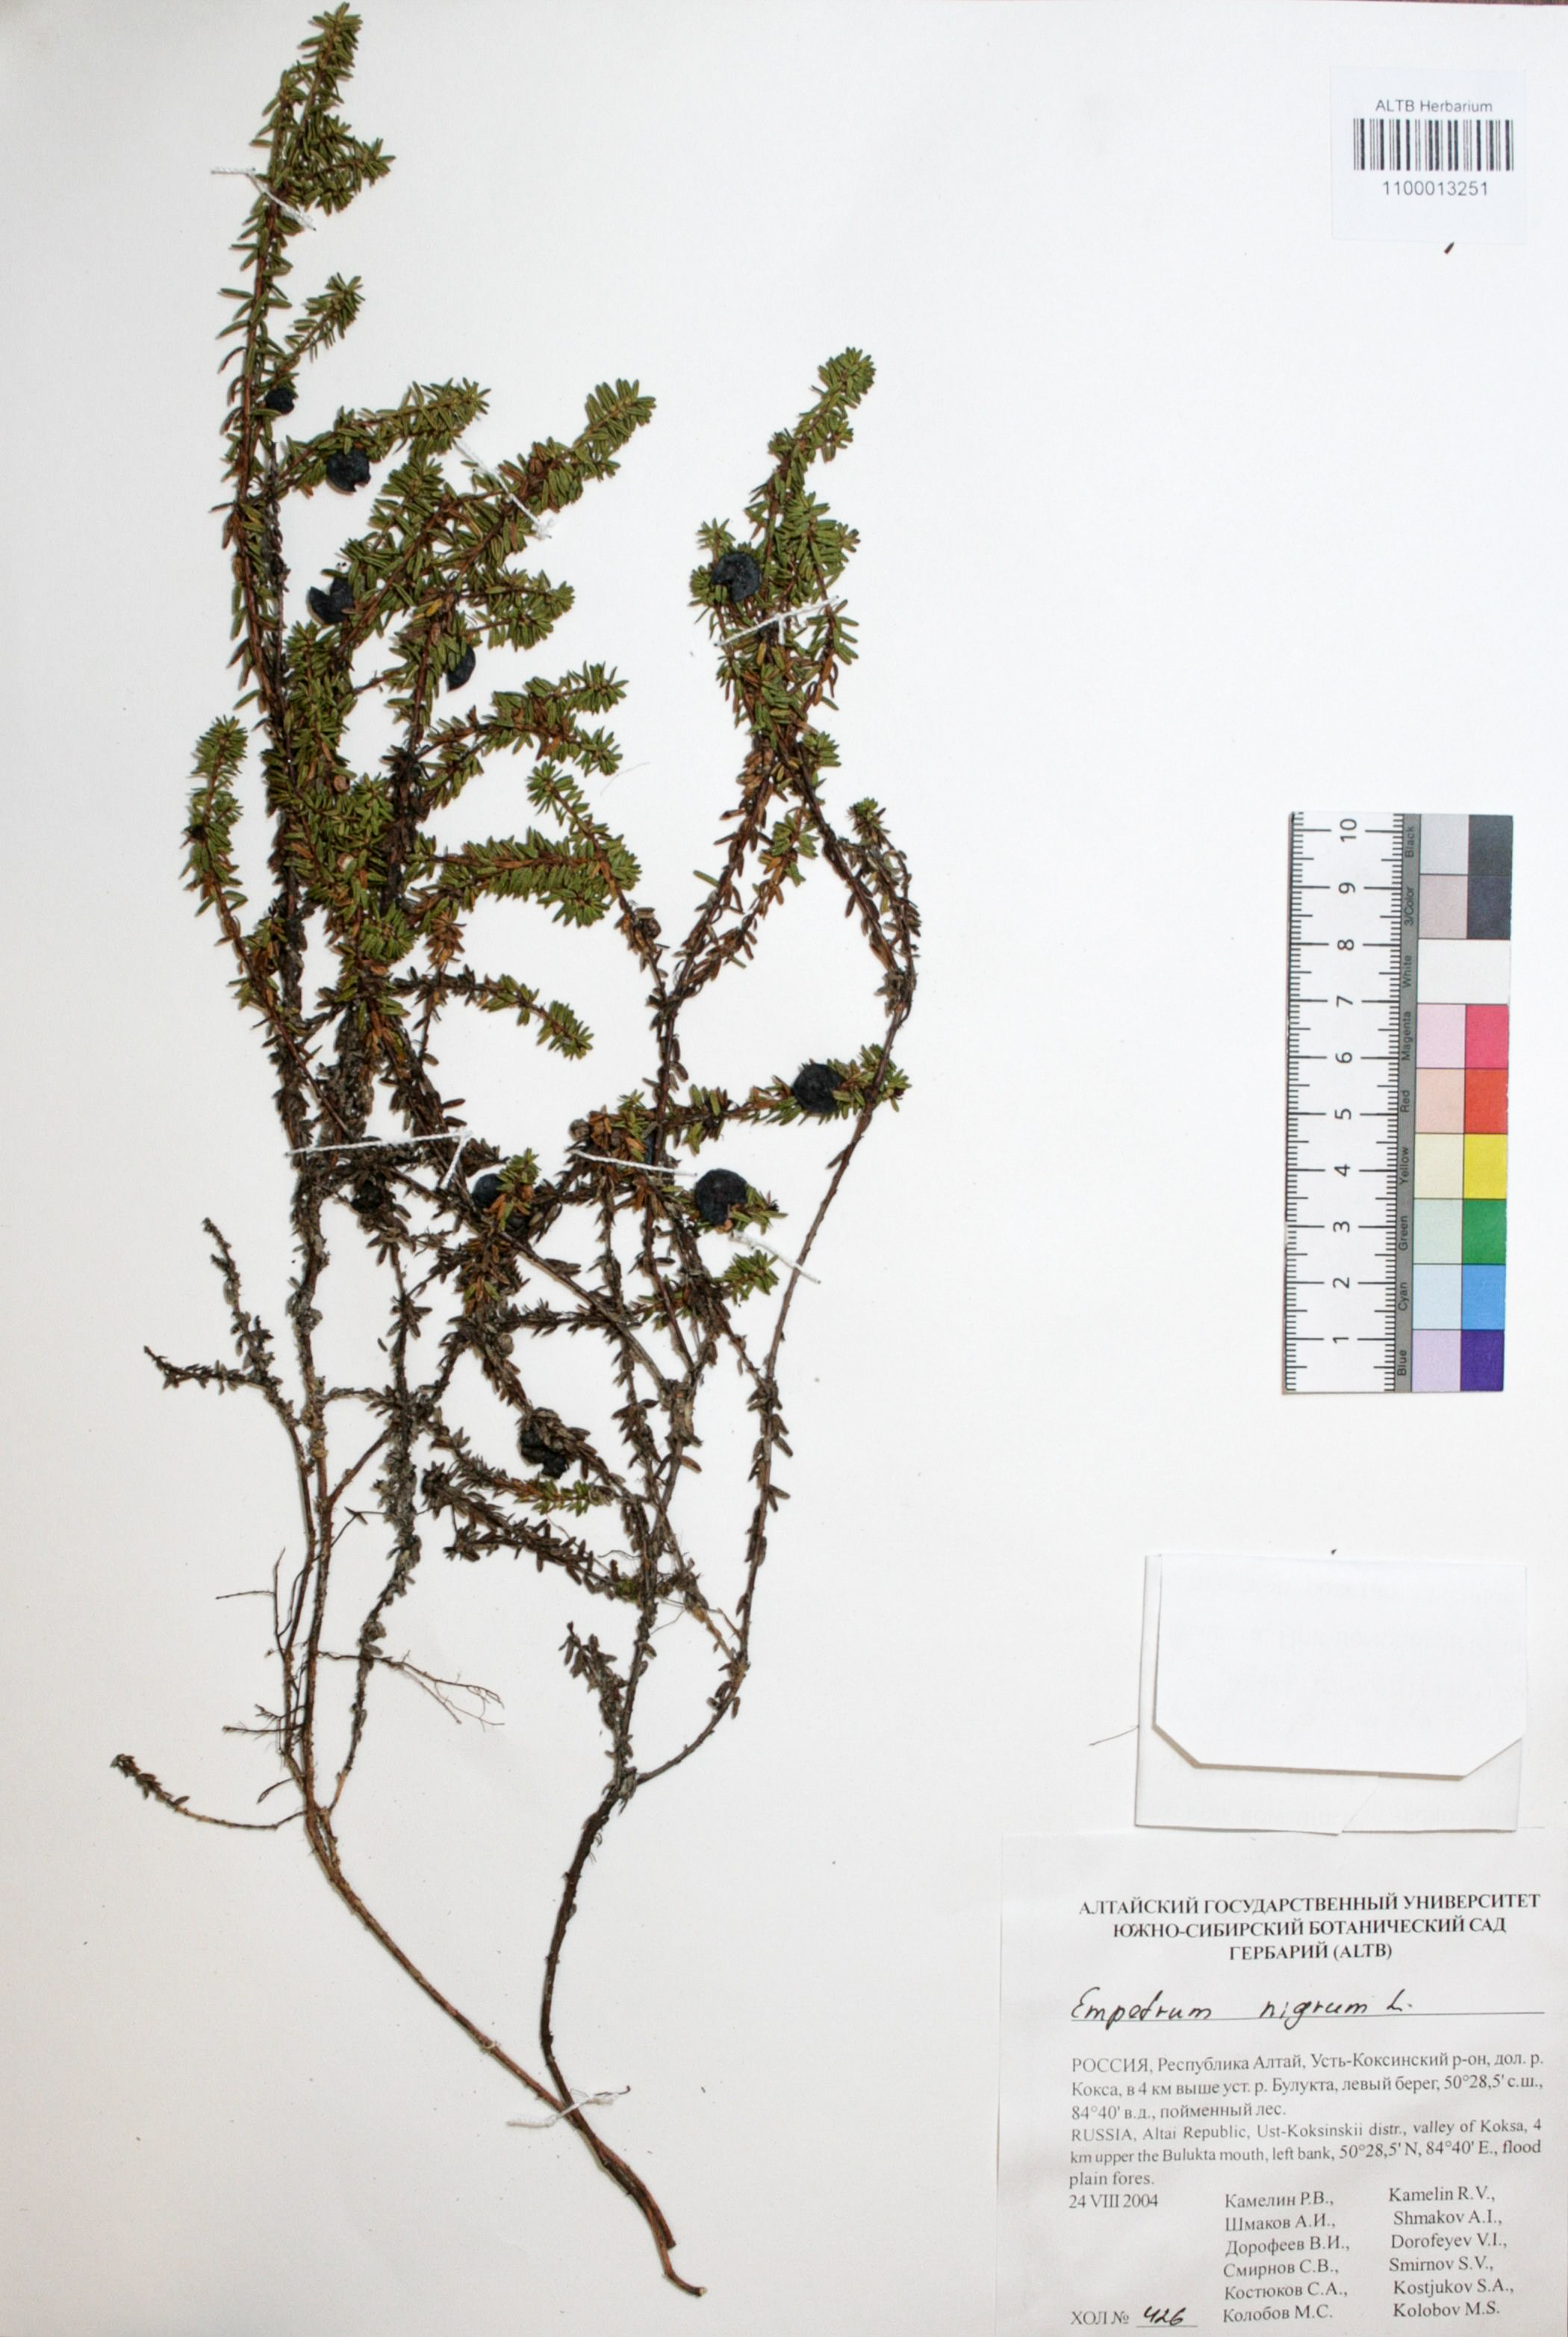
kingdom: Plantae
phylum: Tracheophyta
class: Magnoliopsida
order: Ericales
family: Ericaceae
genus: Empetrum
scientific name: Empetrum nigrum
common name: Black crowberry
